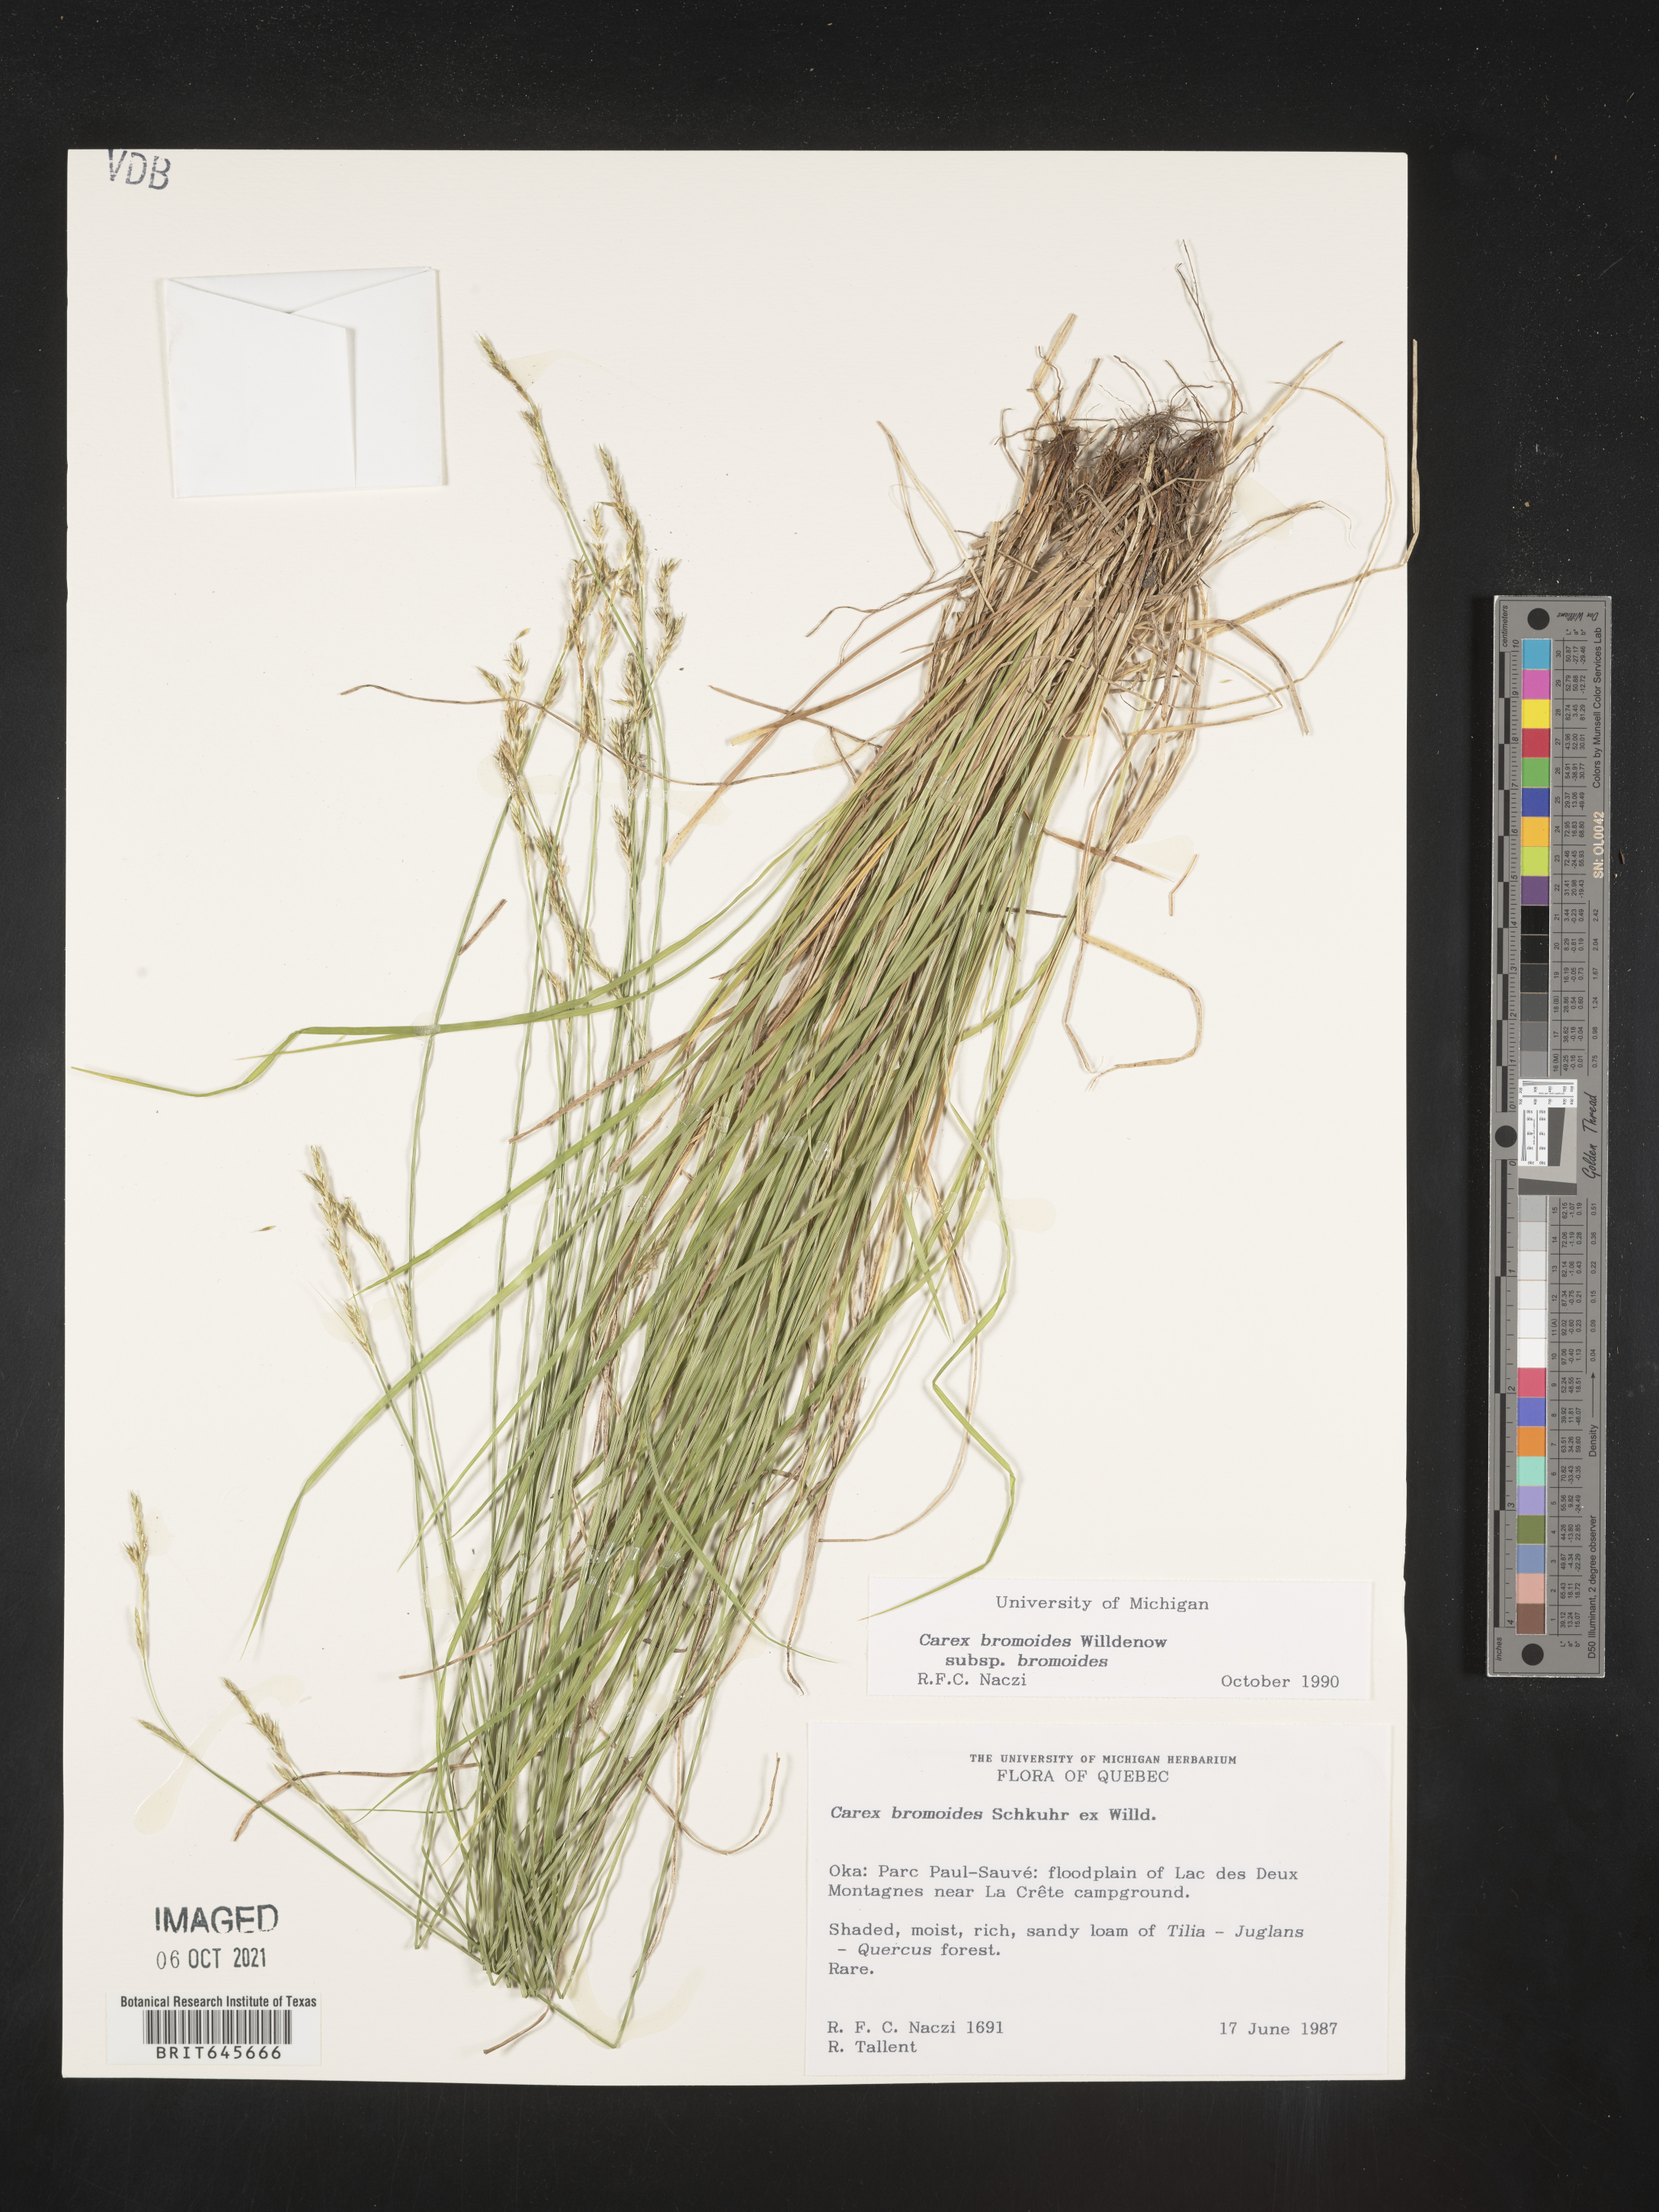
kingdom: Plantae
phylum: Tracheophyta
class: Liliopsida
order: Poales
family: Cyperaceae
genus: Carex
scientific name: Carex bromoides
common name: Brome hummock sedge
